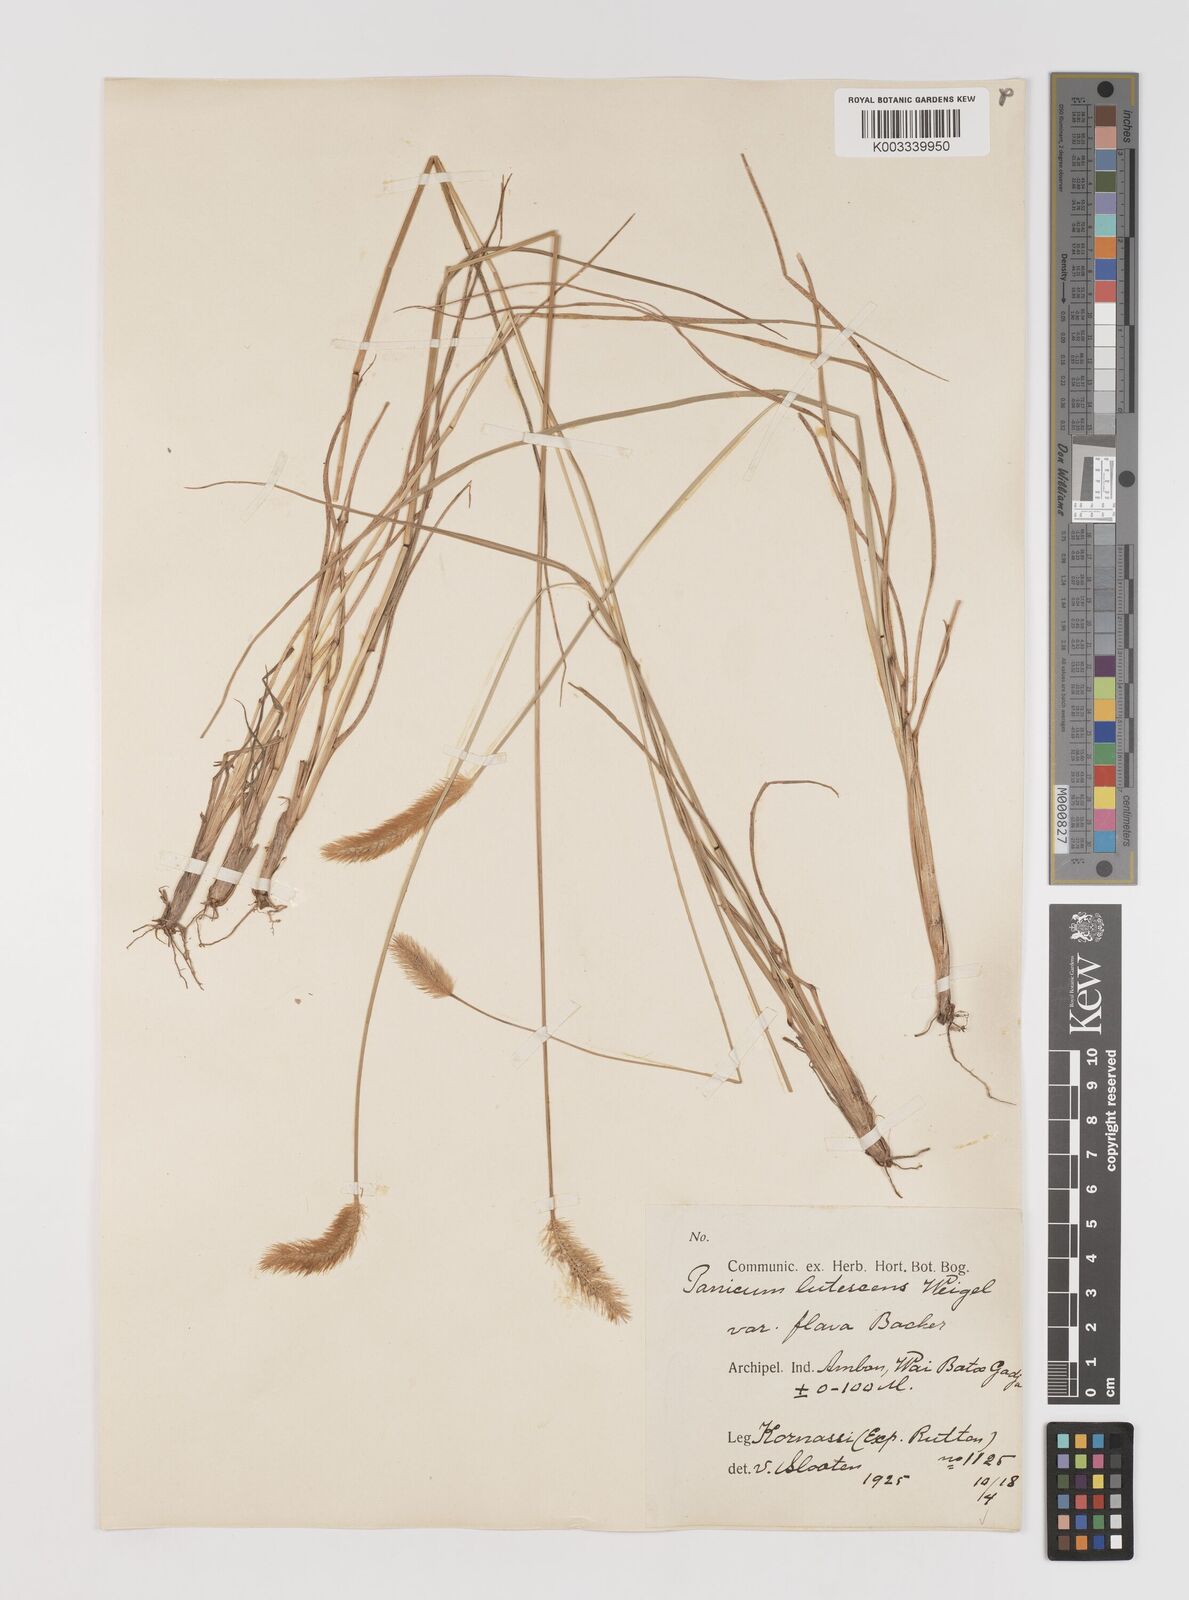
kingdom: Plantae
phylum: Tracheophyta
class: Liliopsida
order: Poales
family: Poaceae
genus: Setaria
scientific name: Setaria parviflora
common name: Knotroot bristle-grass
